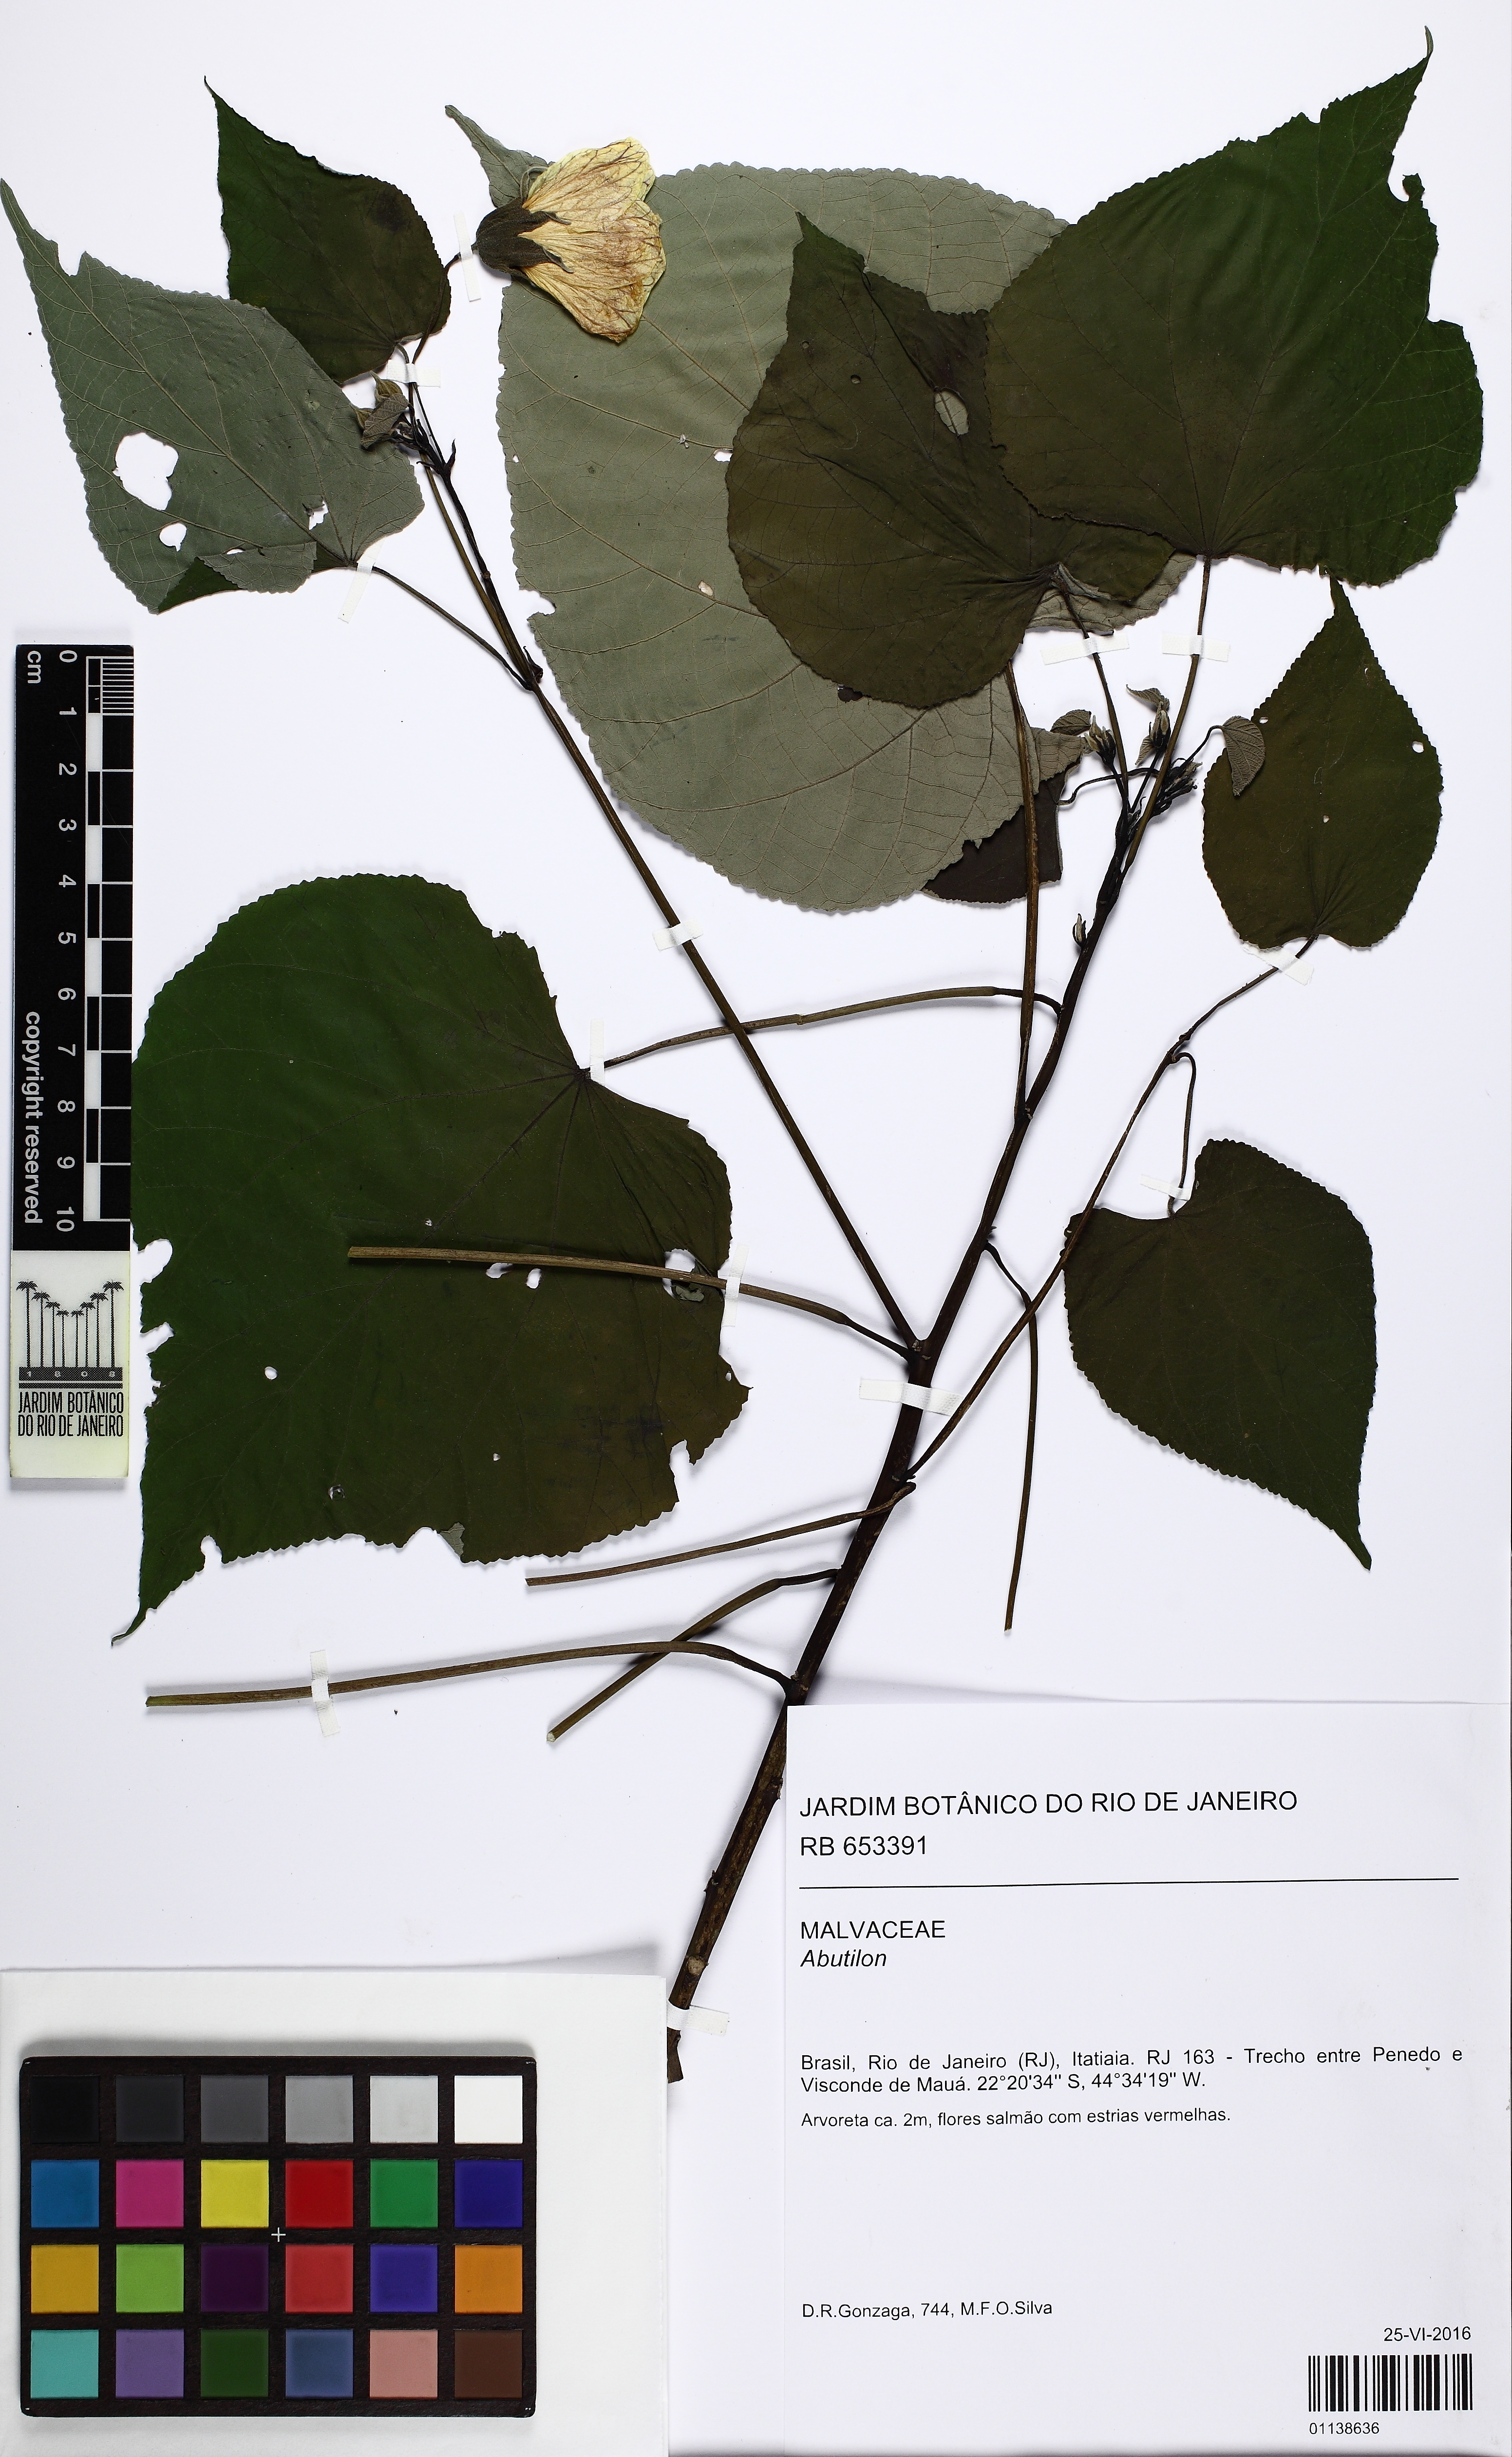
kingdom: Plantae
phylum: Tracheophyta
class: Magnoliopsida
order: Malvales
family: Malvaceae
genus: Abutilon
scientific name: Abutilon
